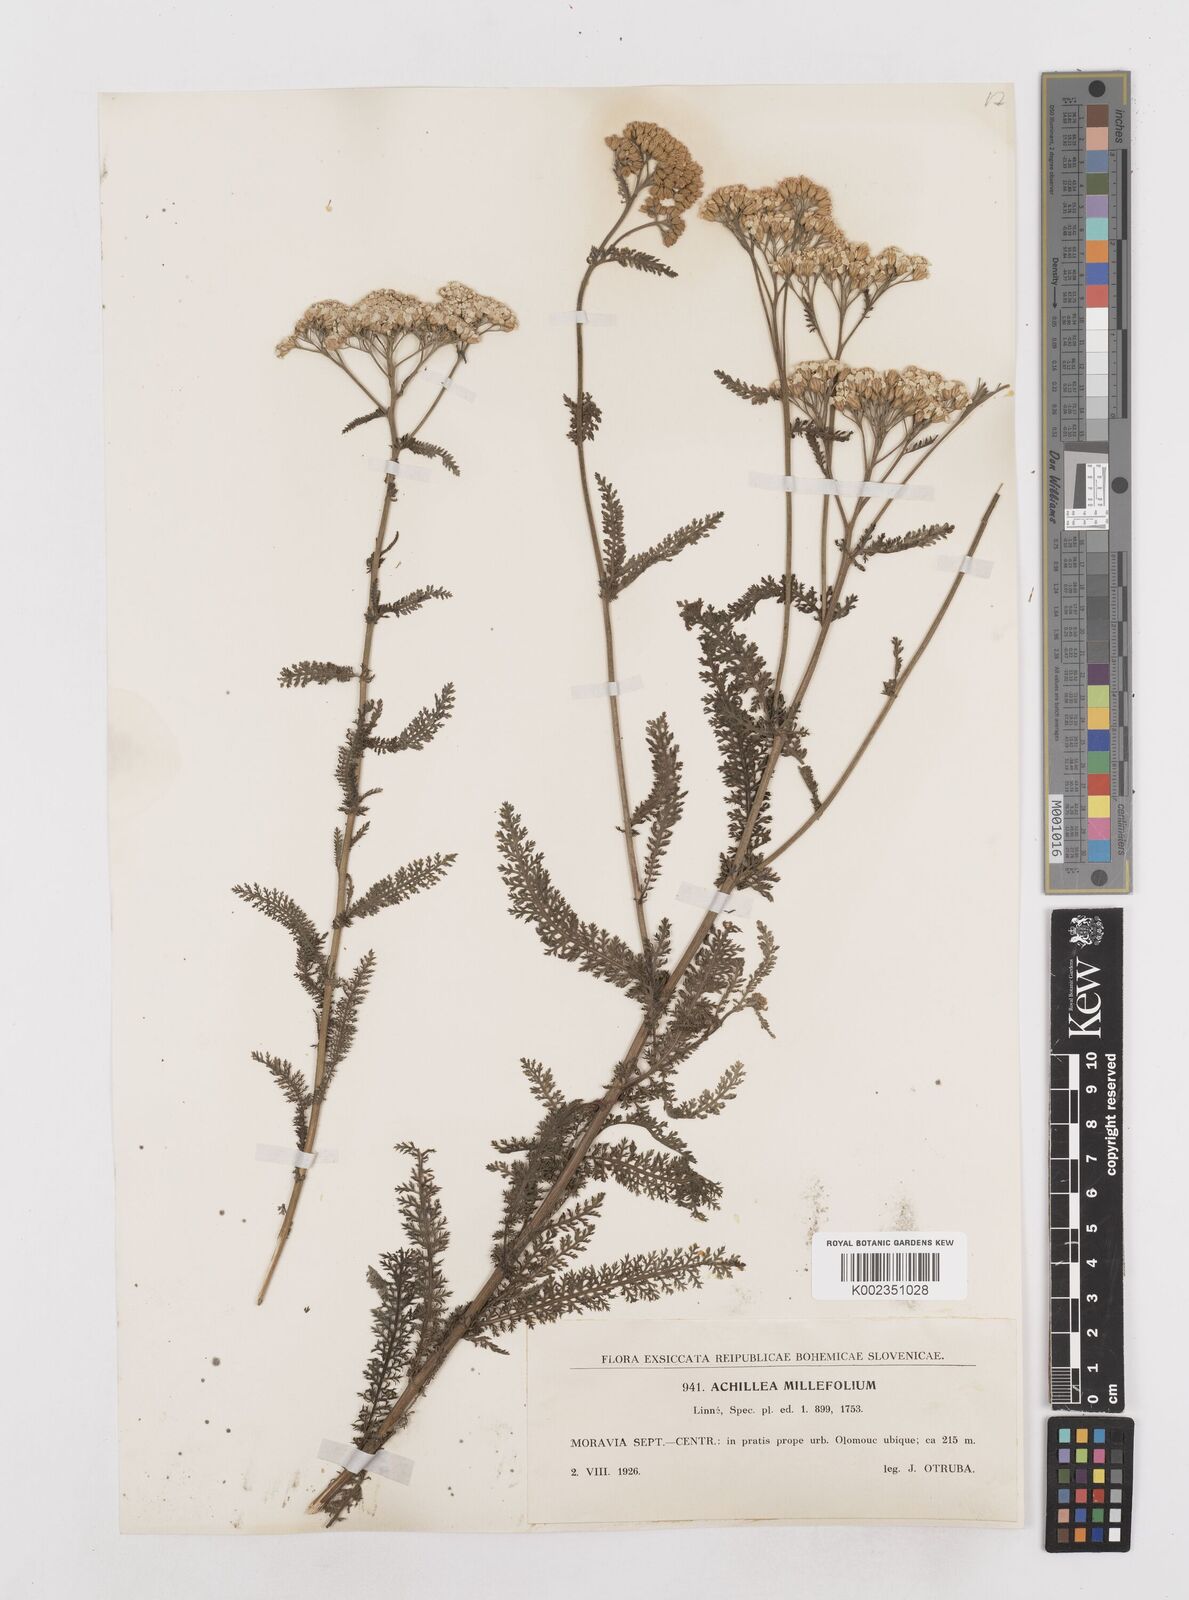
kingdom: Plantae
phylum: Tracheophyta
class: Magnoliopsida
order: Asterales
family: Asteraceae
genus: Achillea
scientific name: Achillea millefolium
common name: Yarrow
